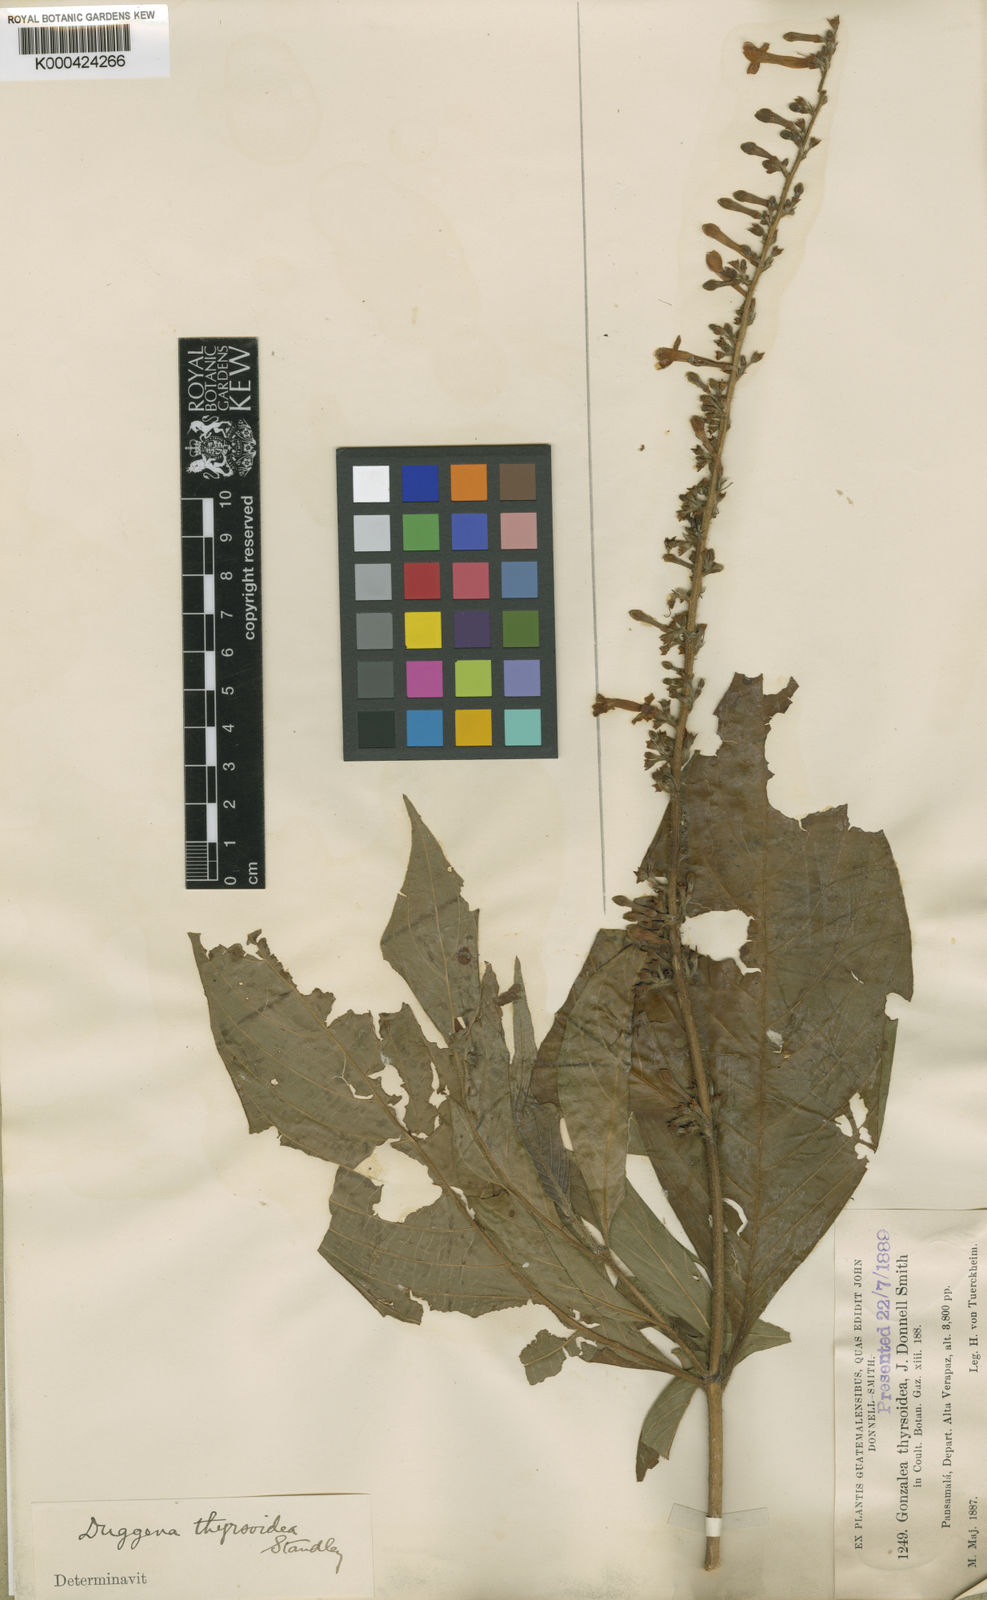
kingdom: Plantae
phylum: Tracheophyta
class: Magnoliopsida
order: Gentianales
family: Rubiaceae
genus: Gonzalagunia
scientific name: Gonzalagunia thyrsoidea
